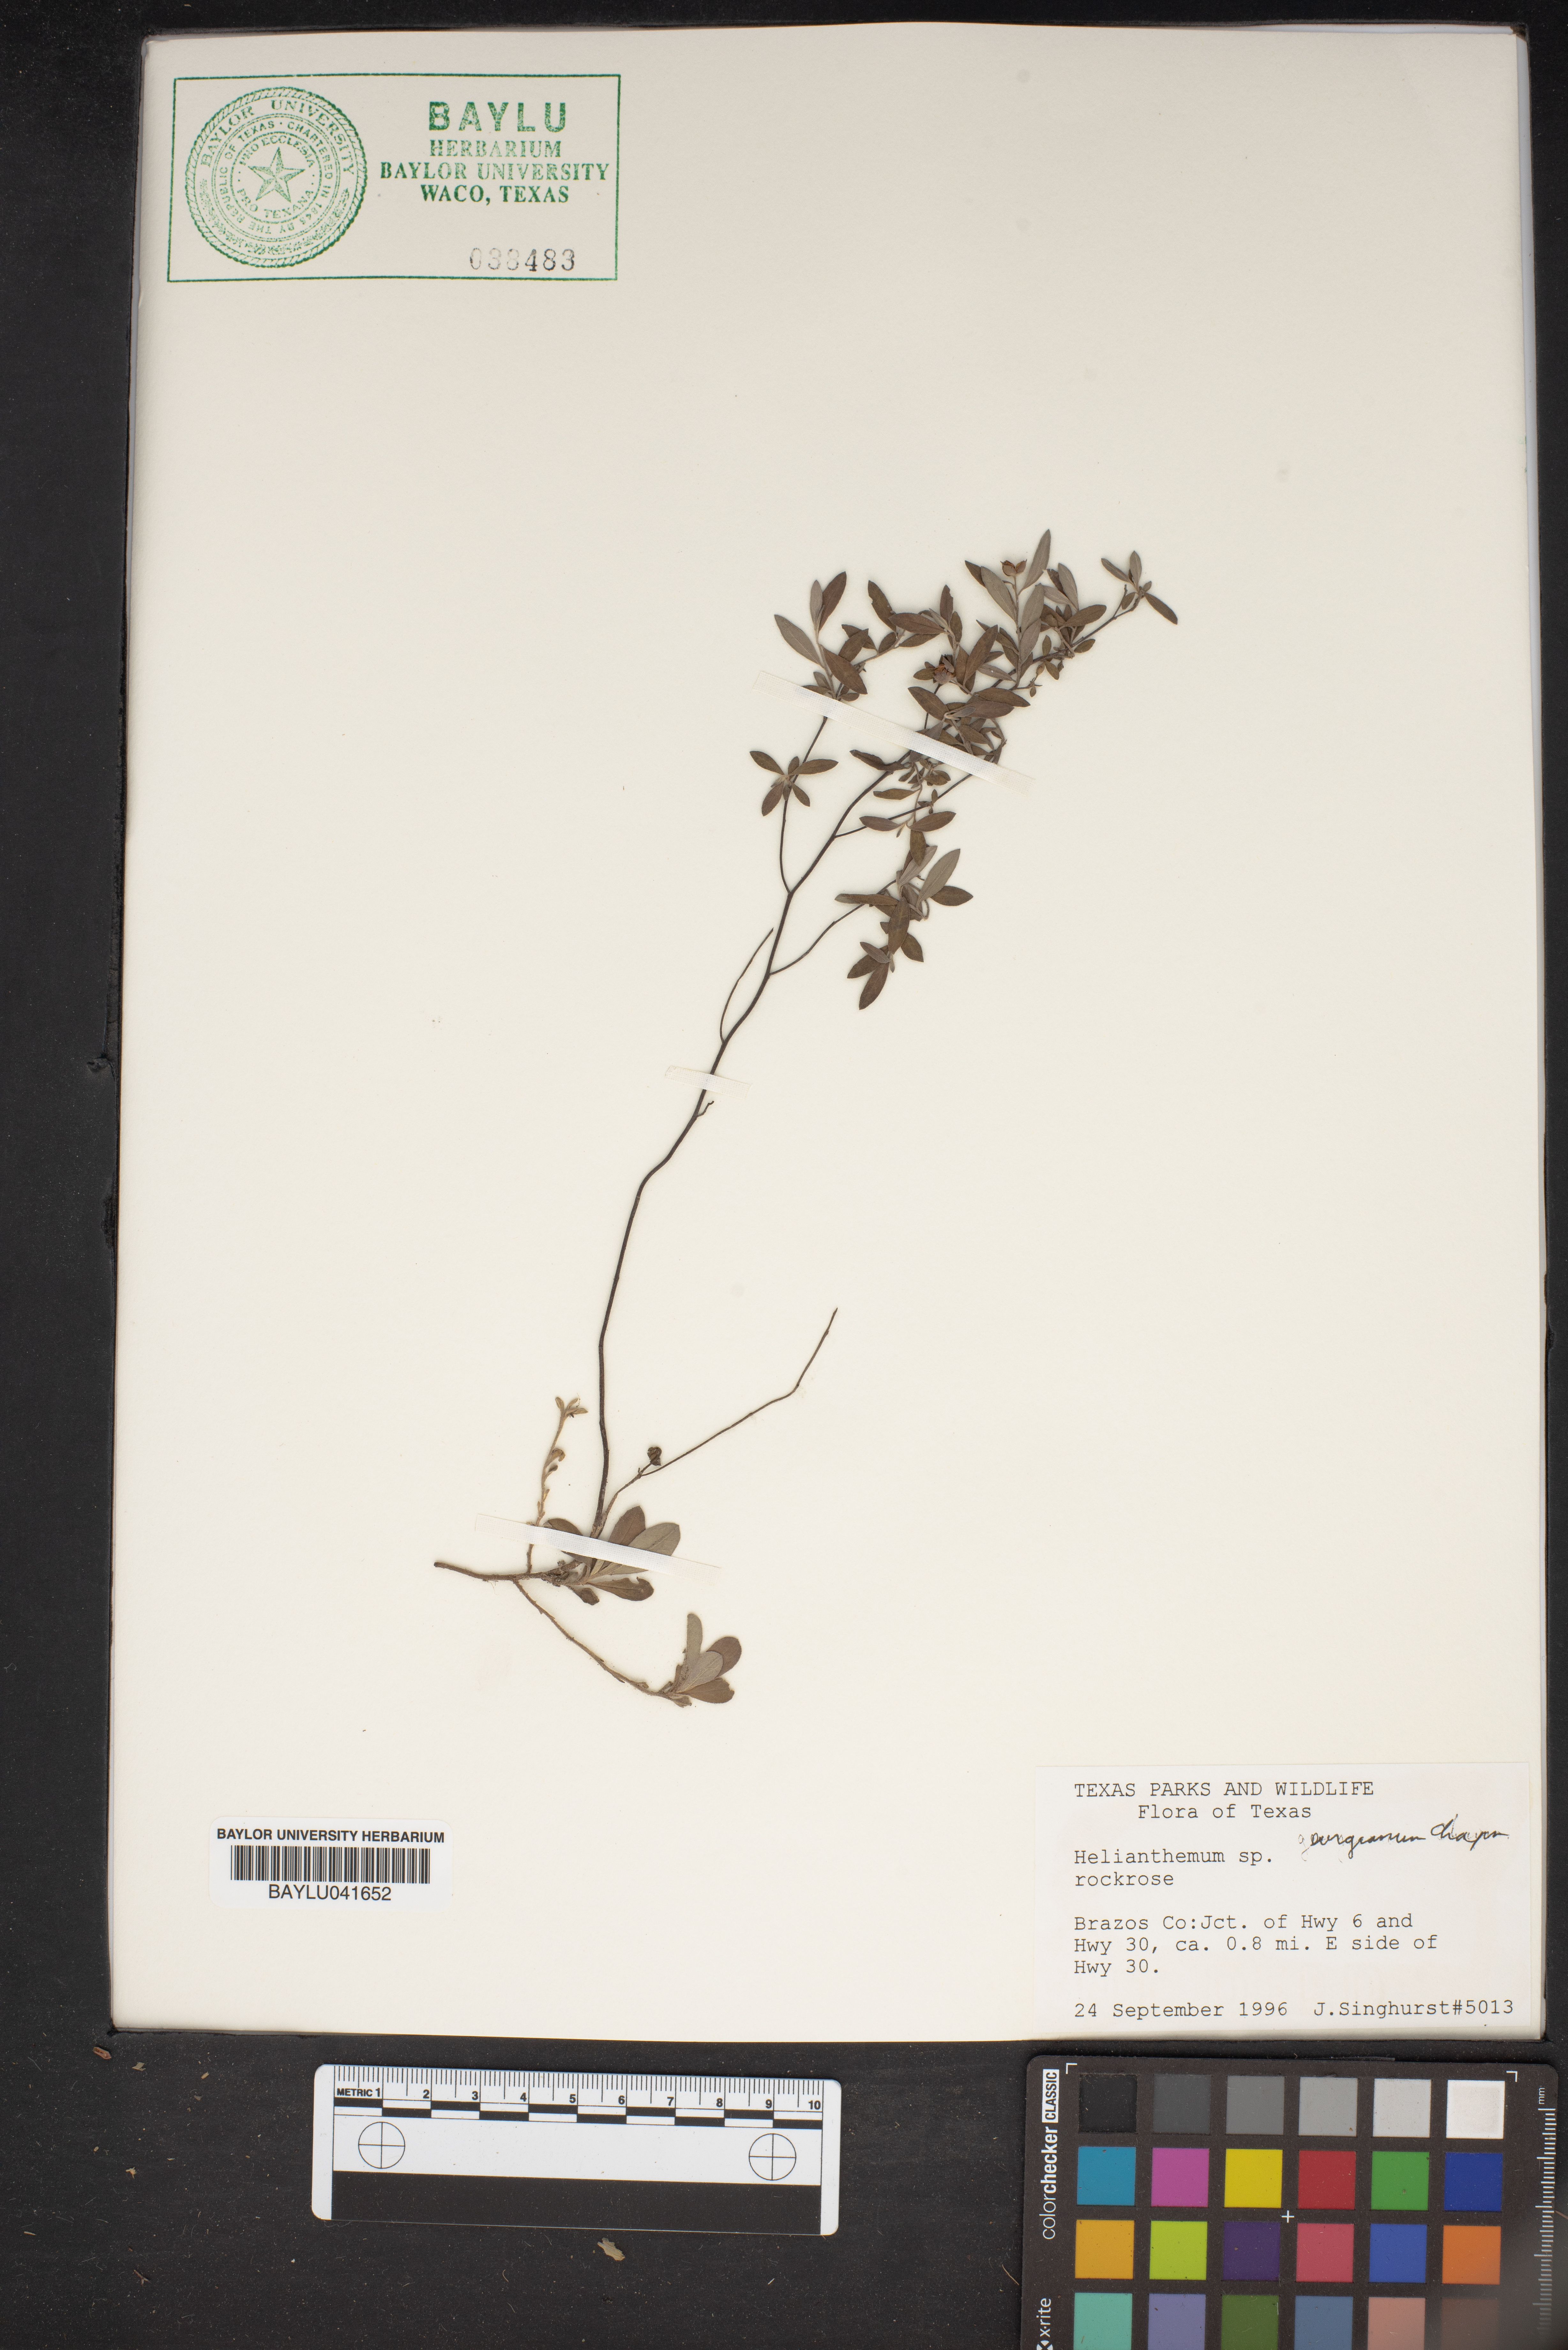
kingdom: Plantae
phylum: Tracheophyta
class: Magnoliopsida
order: Malvales
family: Cistaceae
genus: Helianthemum
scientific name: Helianthemum
